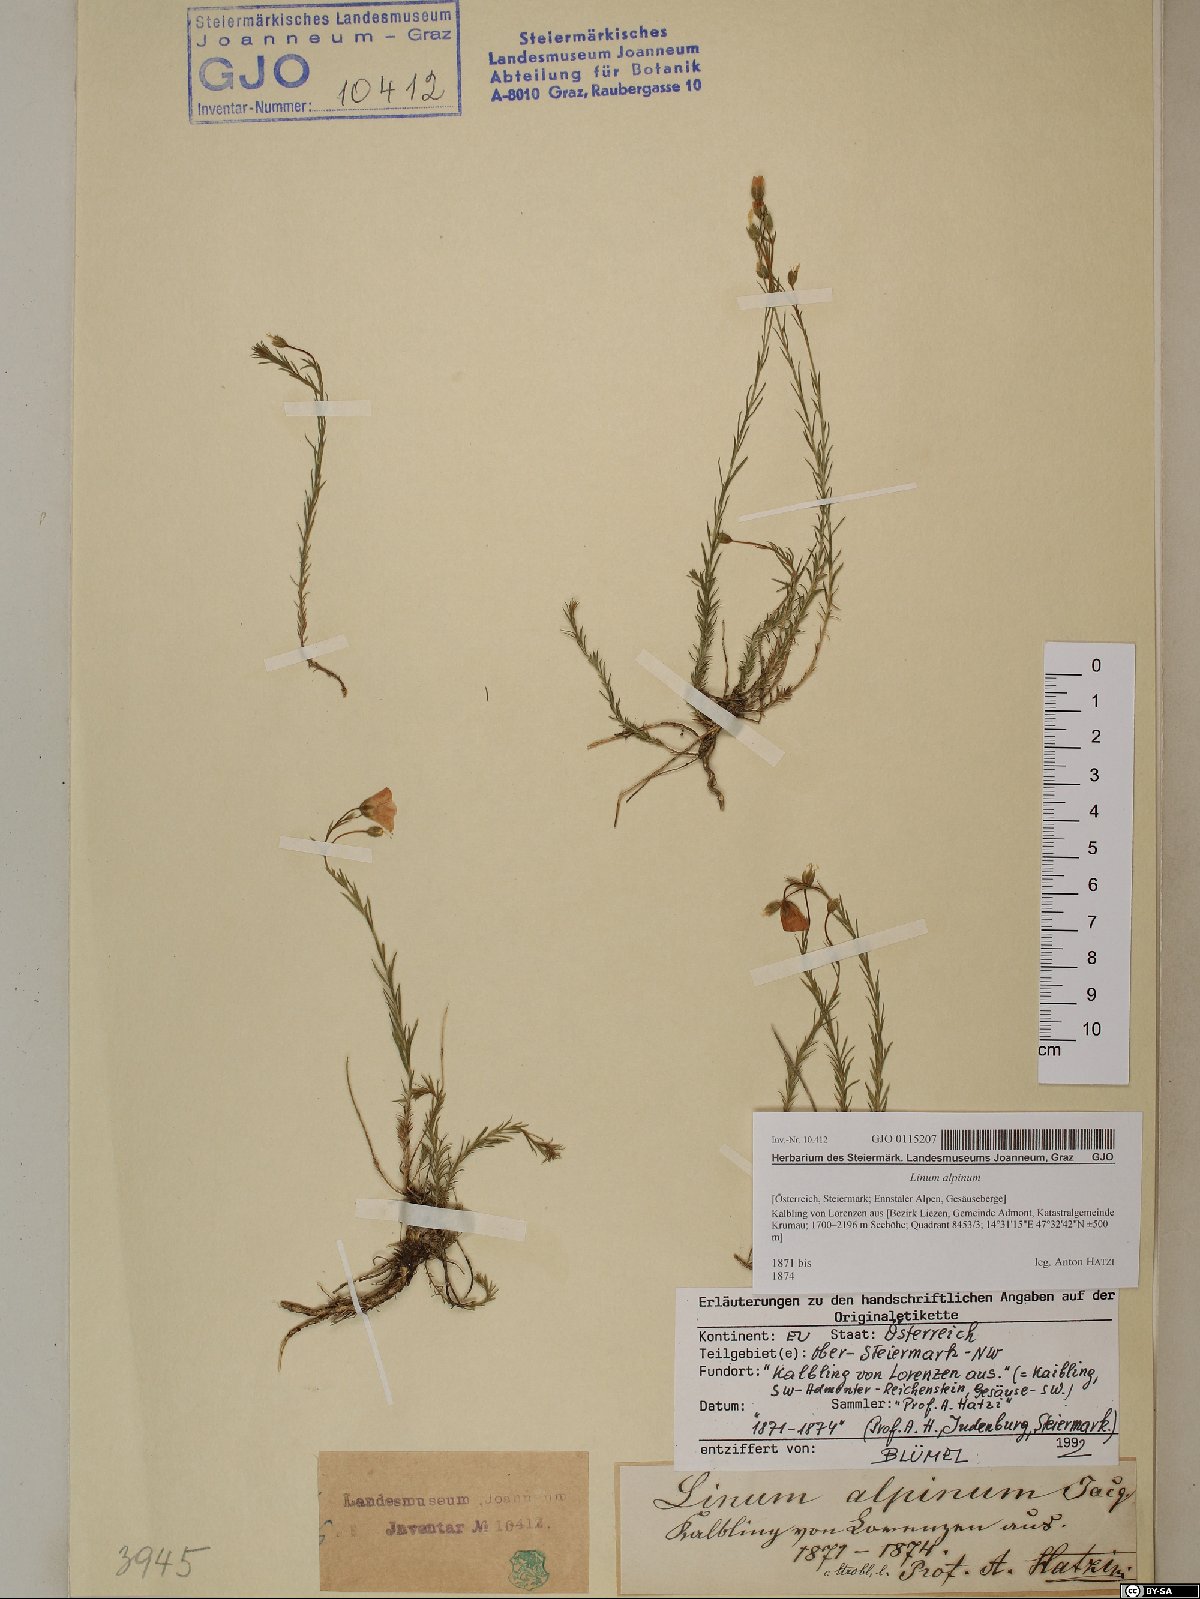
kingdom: Plantae
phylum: Tracheophyta
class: Magnoliopsida
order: Malpighiales
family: Linaceae
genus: Linum
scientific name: Linum alpinum
